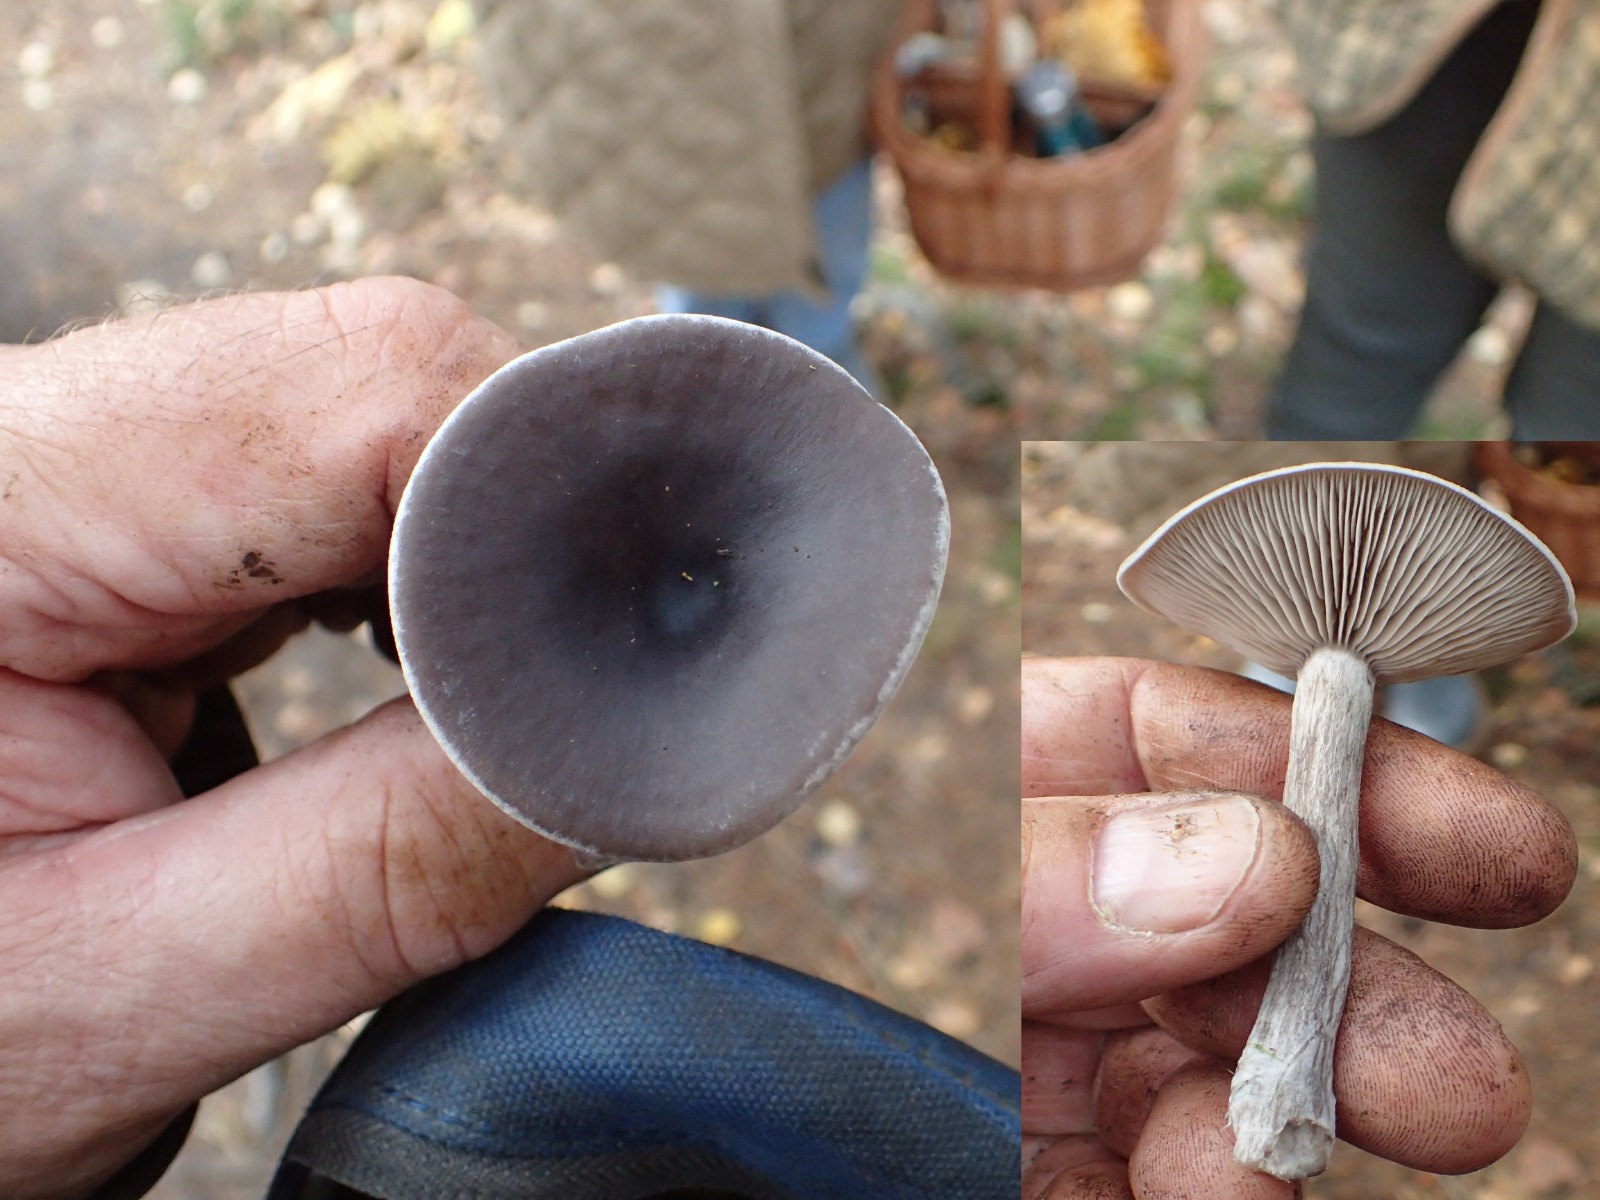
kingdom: Fungi
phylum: Basidiomycota
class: Agaricomycetes
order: Agaricales
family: Pseudoclitocybaceae
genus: Pseudoclitocybe
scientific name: Pseudoclitocybe cyathiformis
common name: almindelig bægertragthat
